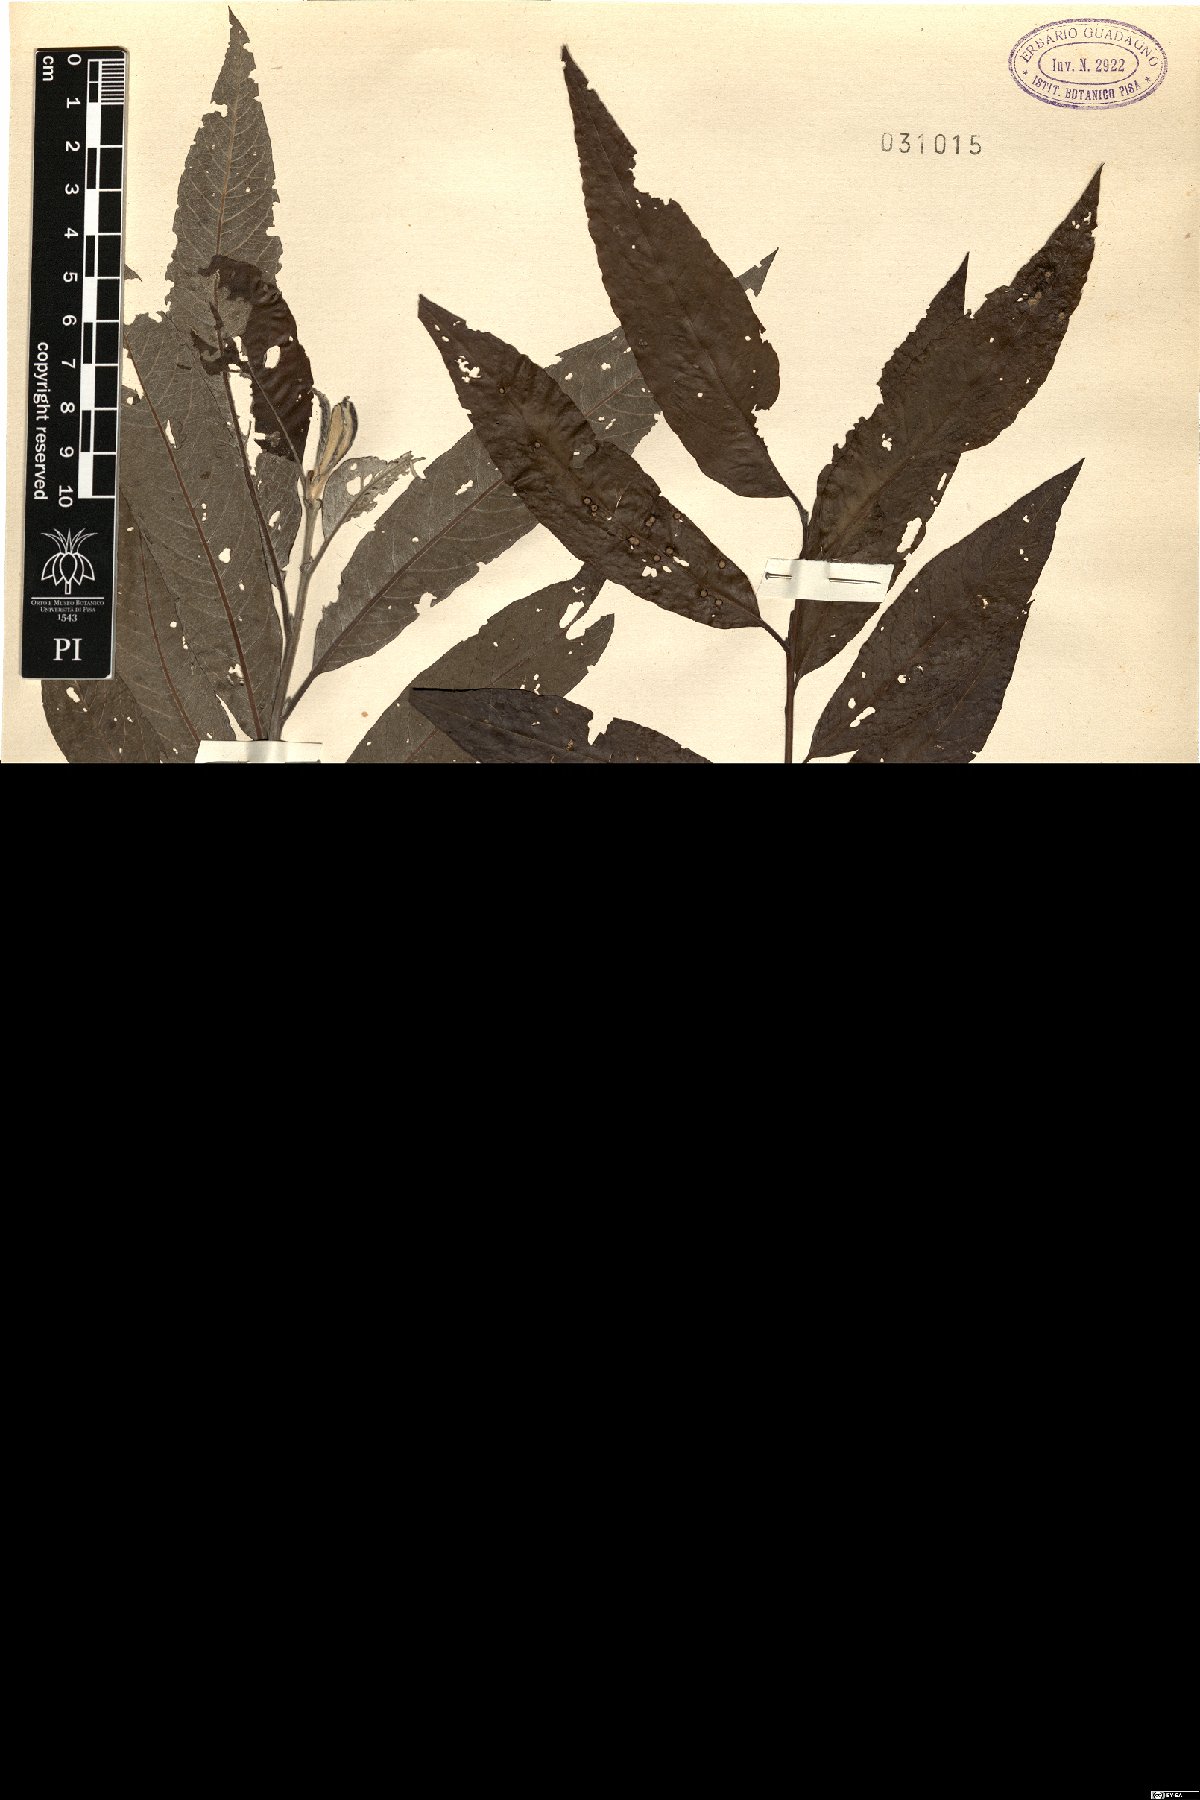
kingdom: Plantae
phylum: Tracheophyta
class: Magnoliopsida
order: Malpighiales
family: Salicaceae
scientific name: Salicaceae
